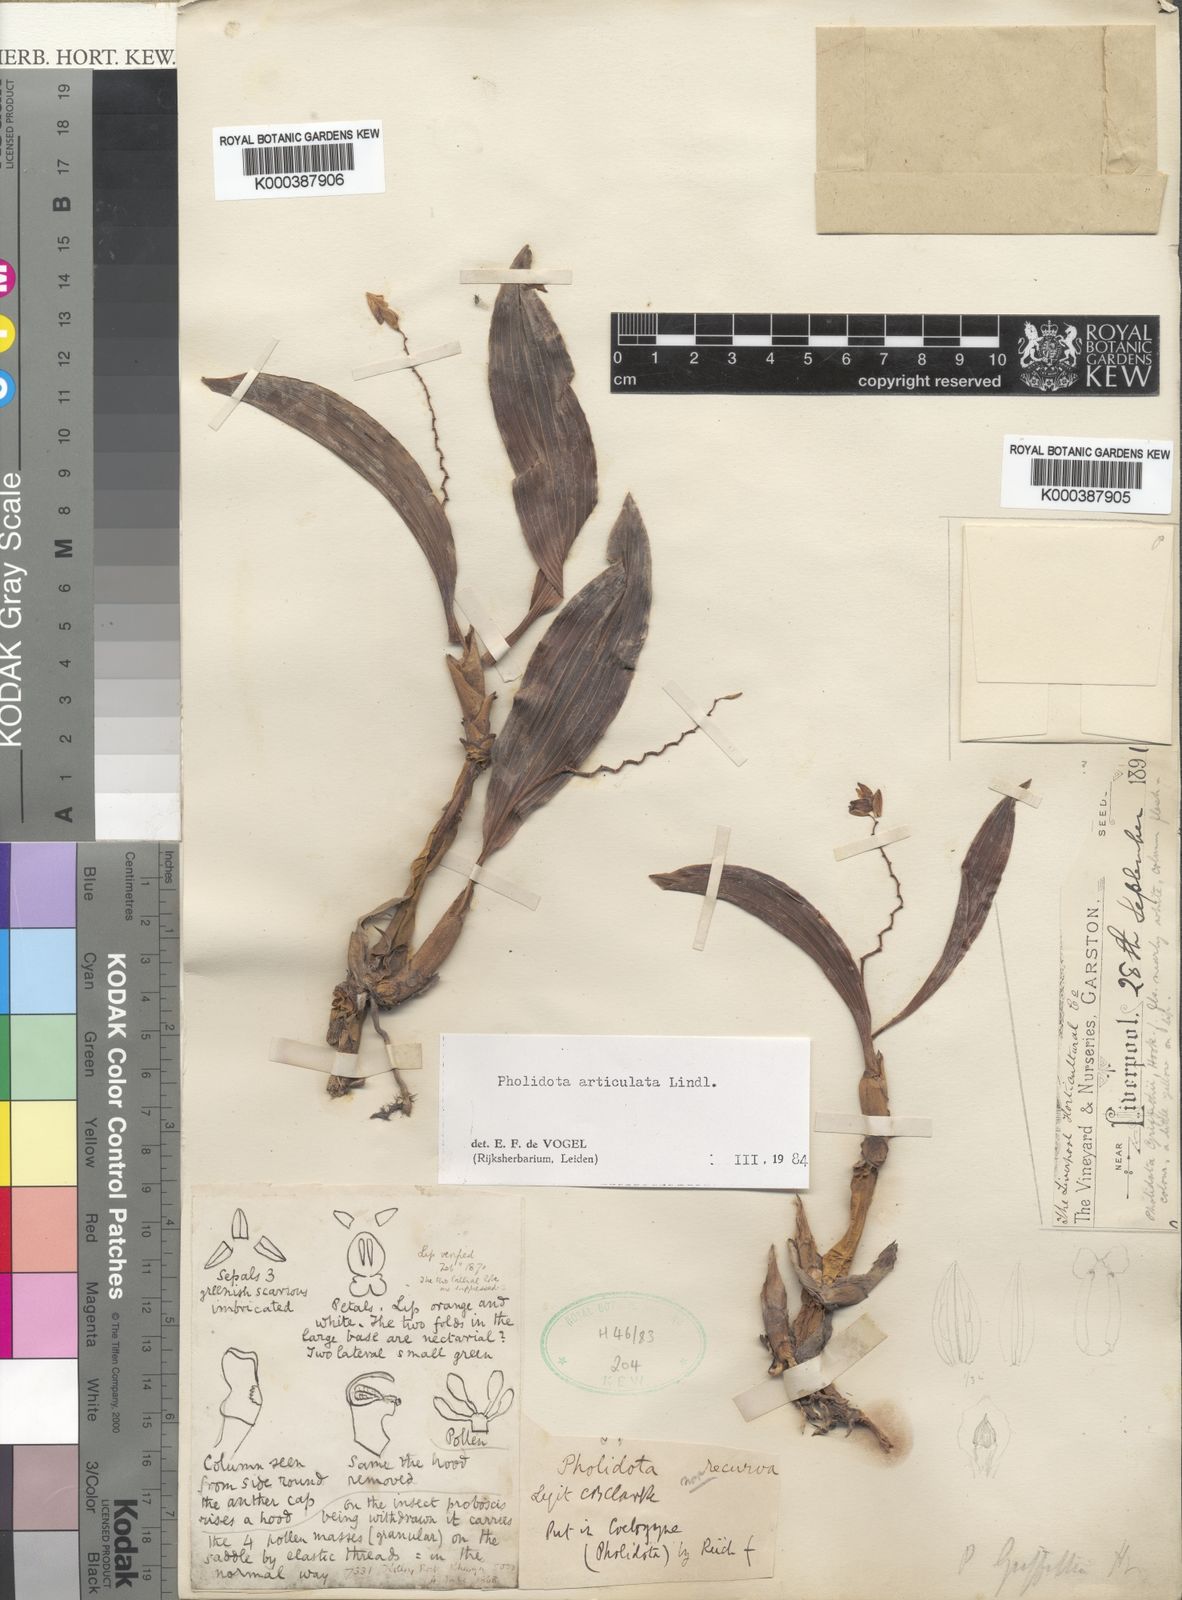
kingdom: Plantae
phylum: Tracheophyta
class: Liliopsida
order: Asparagales
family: Orchidaceae
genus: Coelogyne
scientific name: Coelogyne articulata
